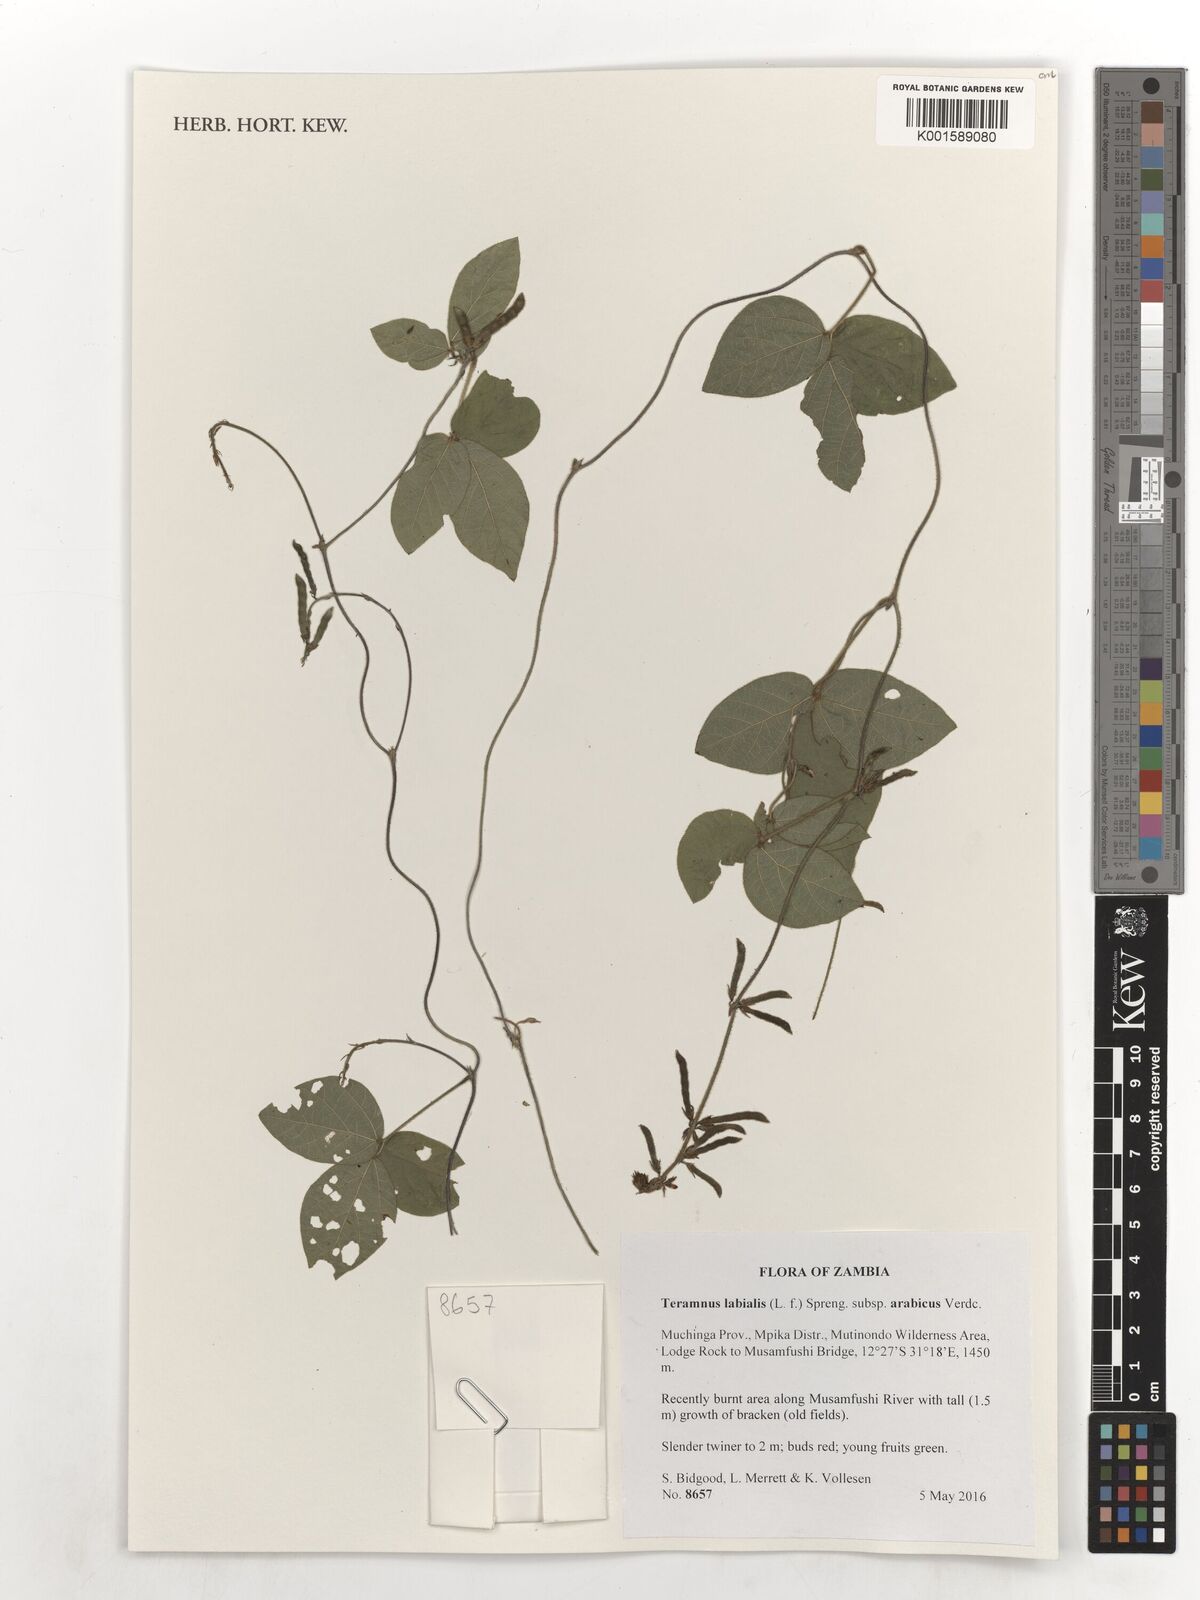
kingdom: Plantae
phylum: Tracheophyta
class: Magnoliopsida
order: Fabales
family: Fabaceae
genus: Teramnus
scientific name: Teramnus labialis
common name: Blue wiss
